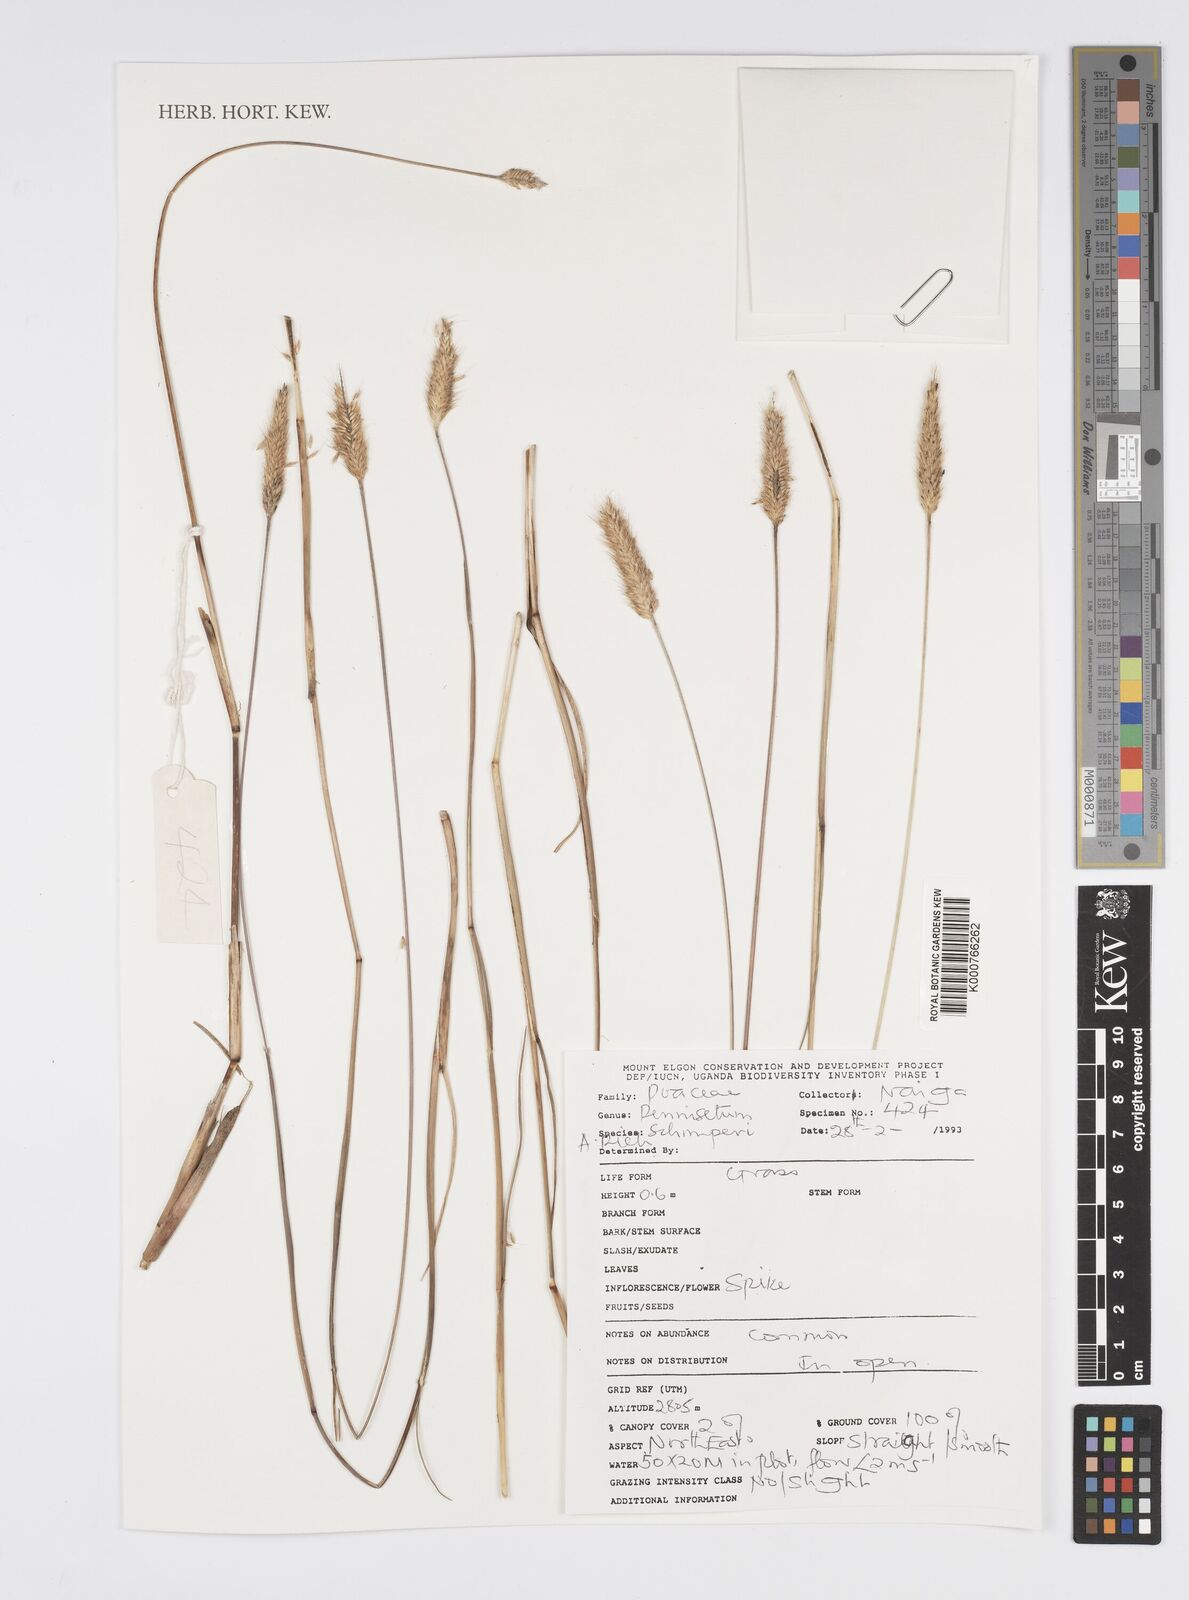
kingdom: Plantae
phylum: Tracheophyta
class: Liliopsida
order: Poales
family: Poaceae
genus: Cenchrus
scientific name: Cenchrus sphacelatus
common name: Bulgras
